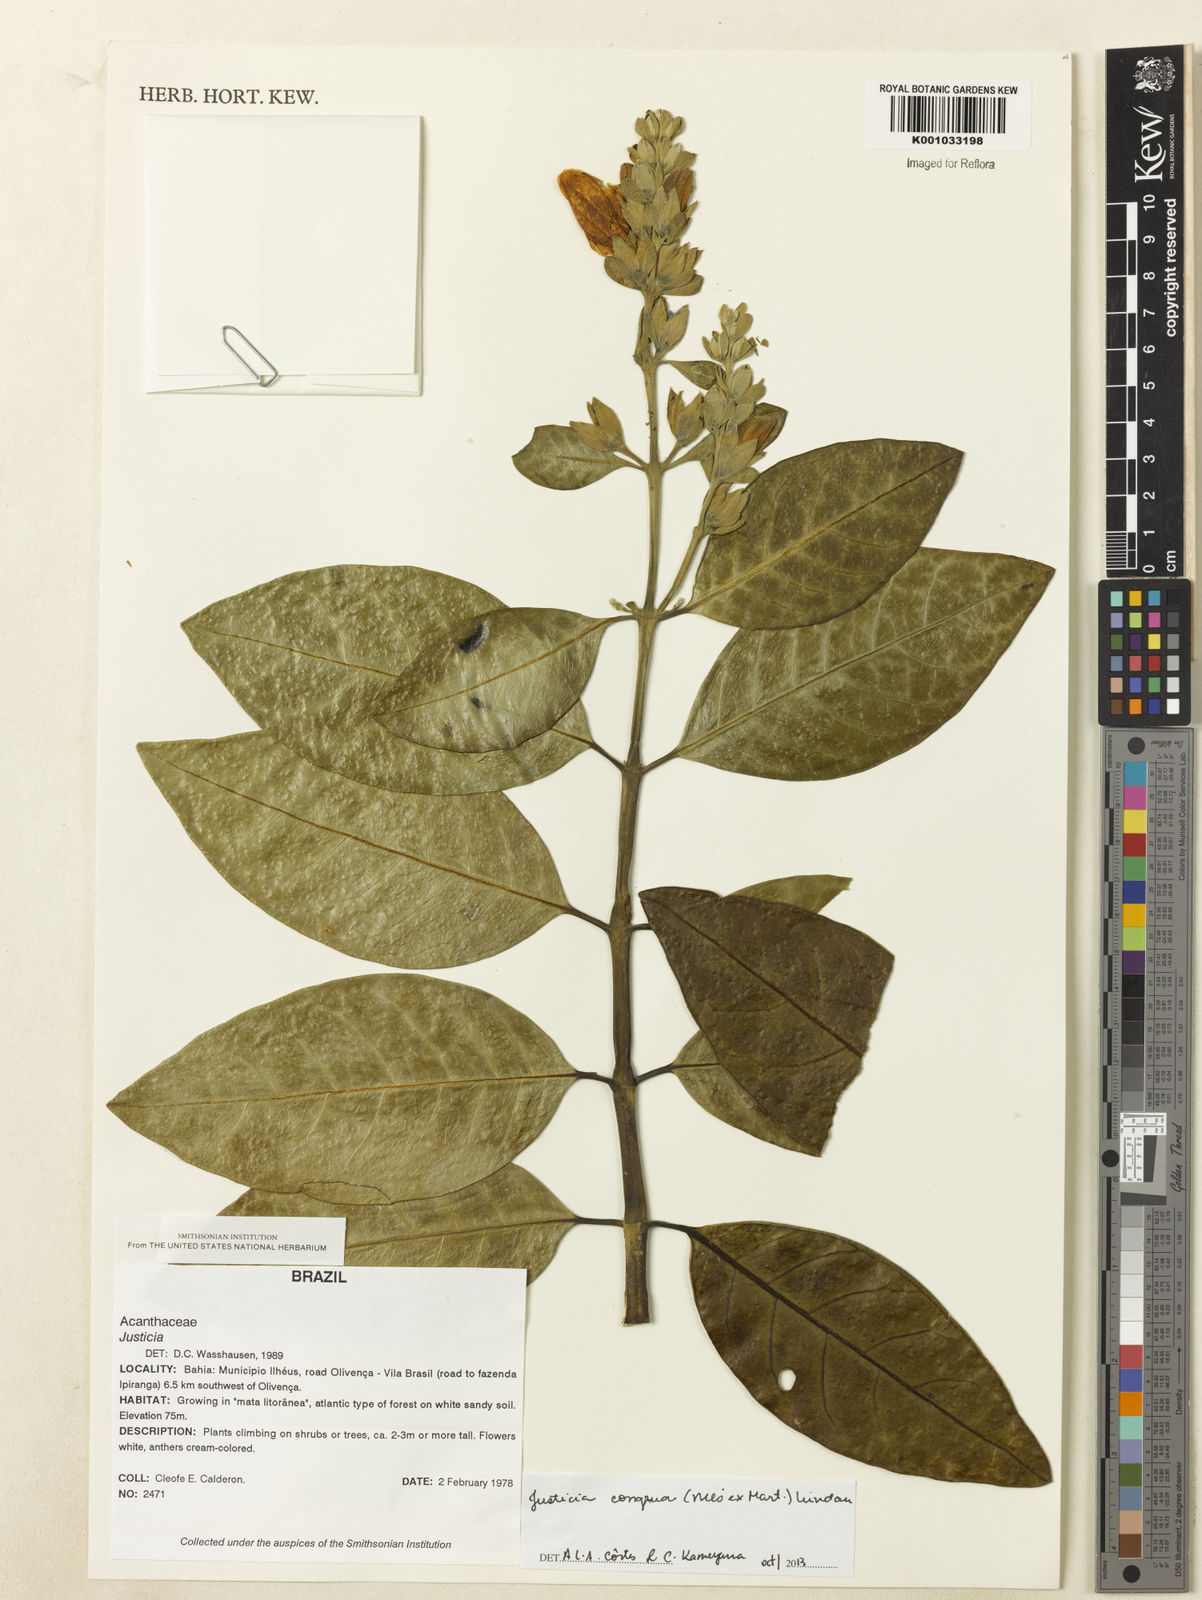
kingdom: Plantae
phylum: Tracheophyta
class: Magnoliopsida
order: Lamiales
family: Acanthaceae
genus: Justicia
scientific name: Justicia congrua
